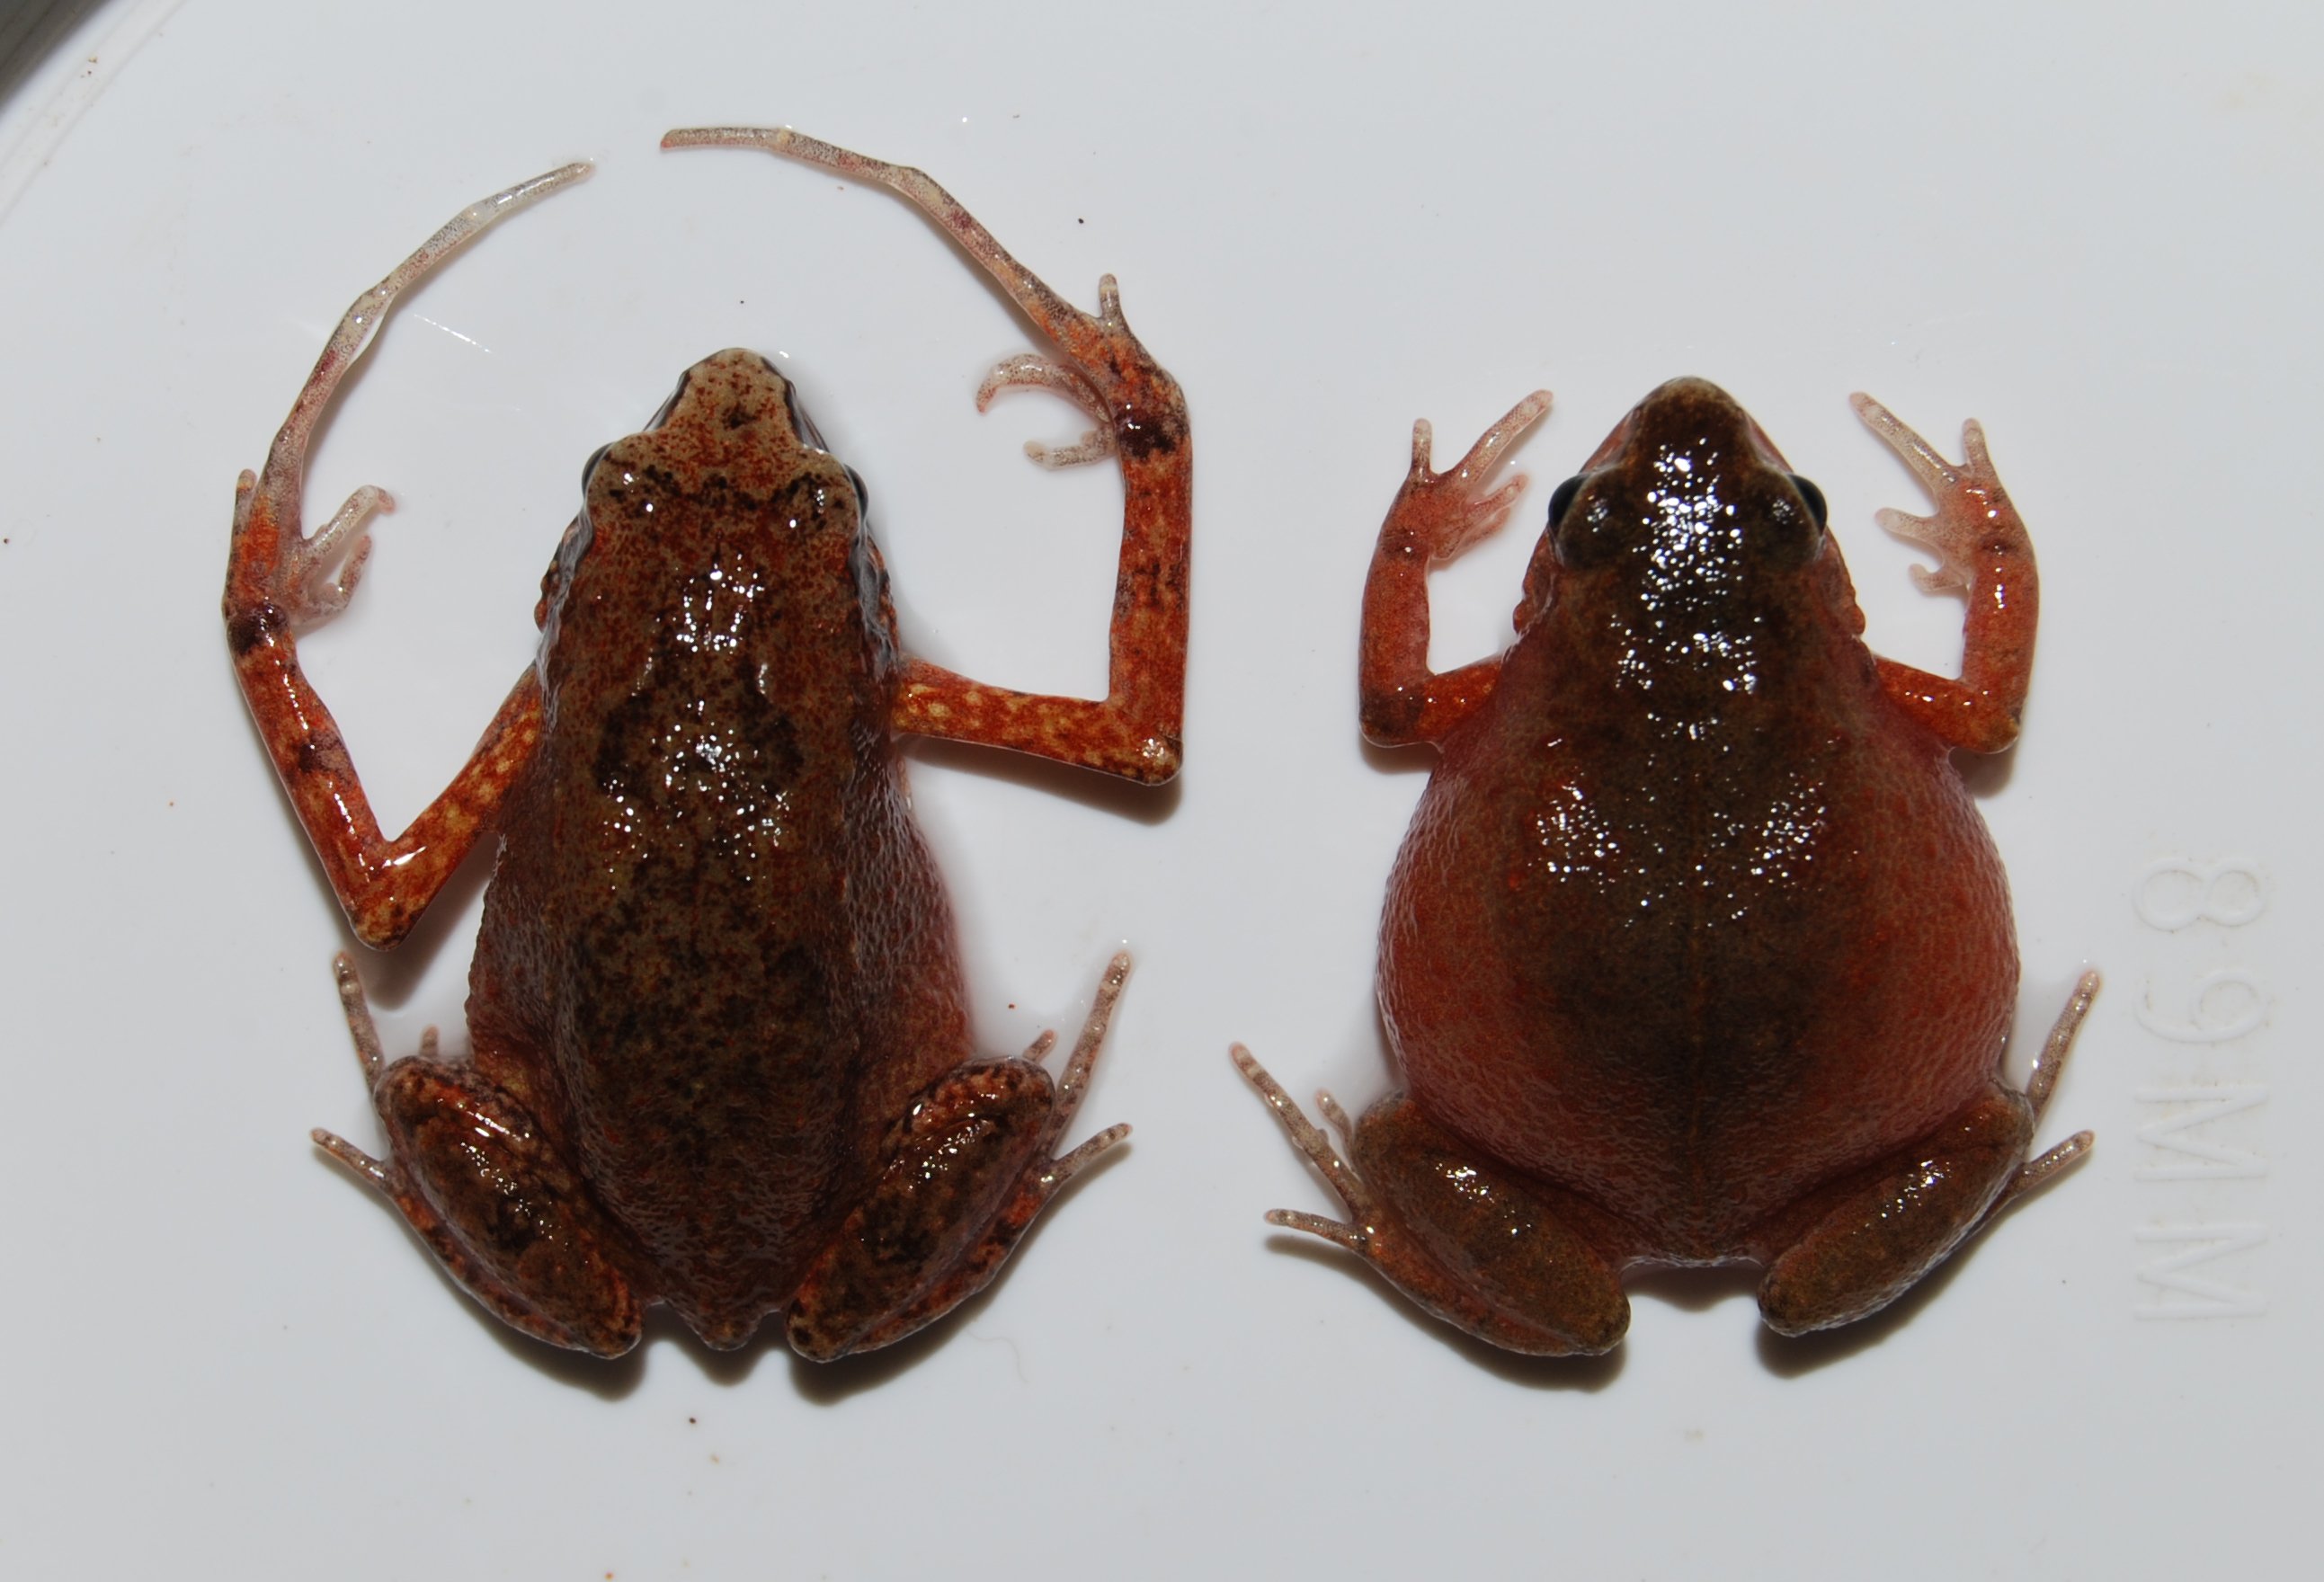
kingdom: Animalia
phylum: Chordata
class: Amphibia
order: Anura
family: Arthroleptidae
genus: Arthroleptis
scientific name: Arthroleptis xenochirus
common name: Plain squeaker
